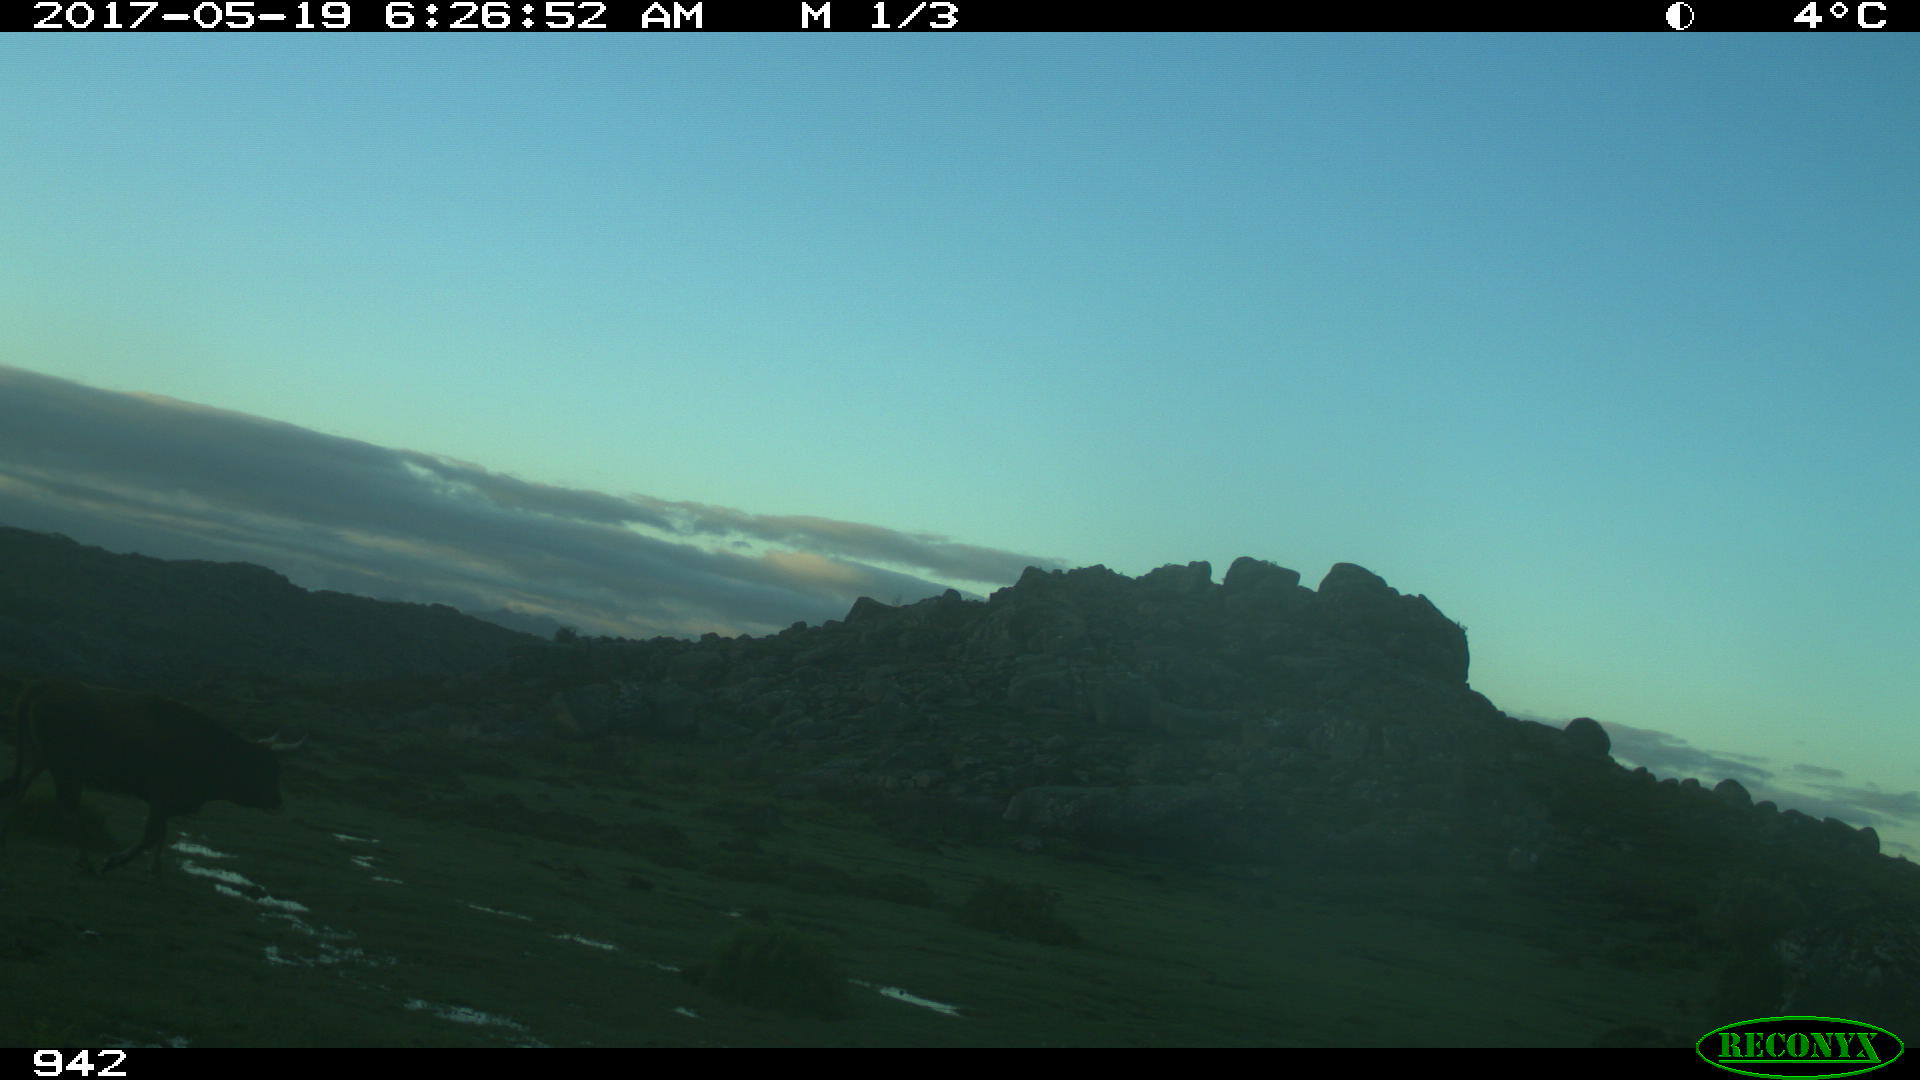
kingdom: Animalia
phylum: Chordata
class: Mammalia
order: Artiodactyla
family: Bovidae
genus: Bos
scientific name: Bos taurus
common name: Domesticated cattle
